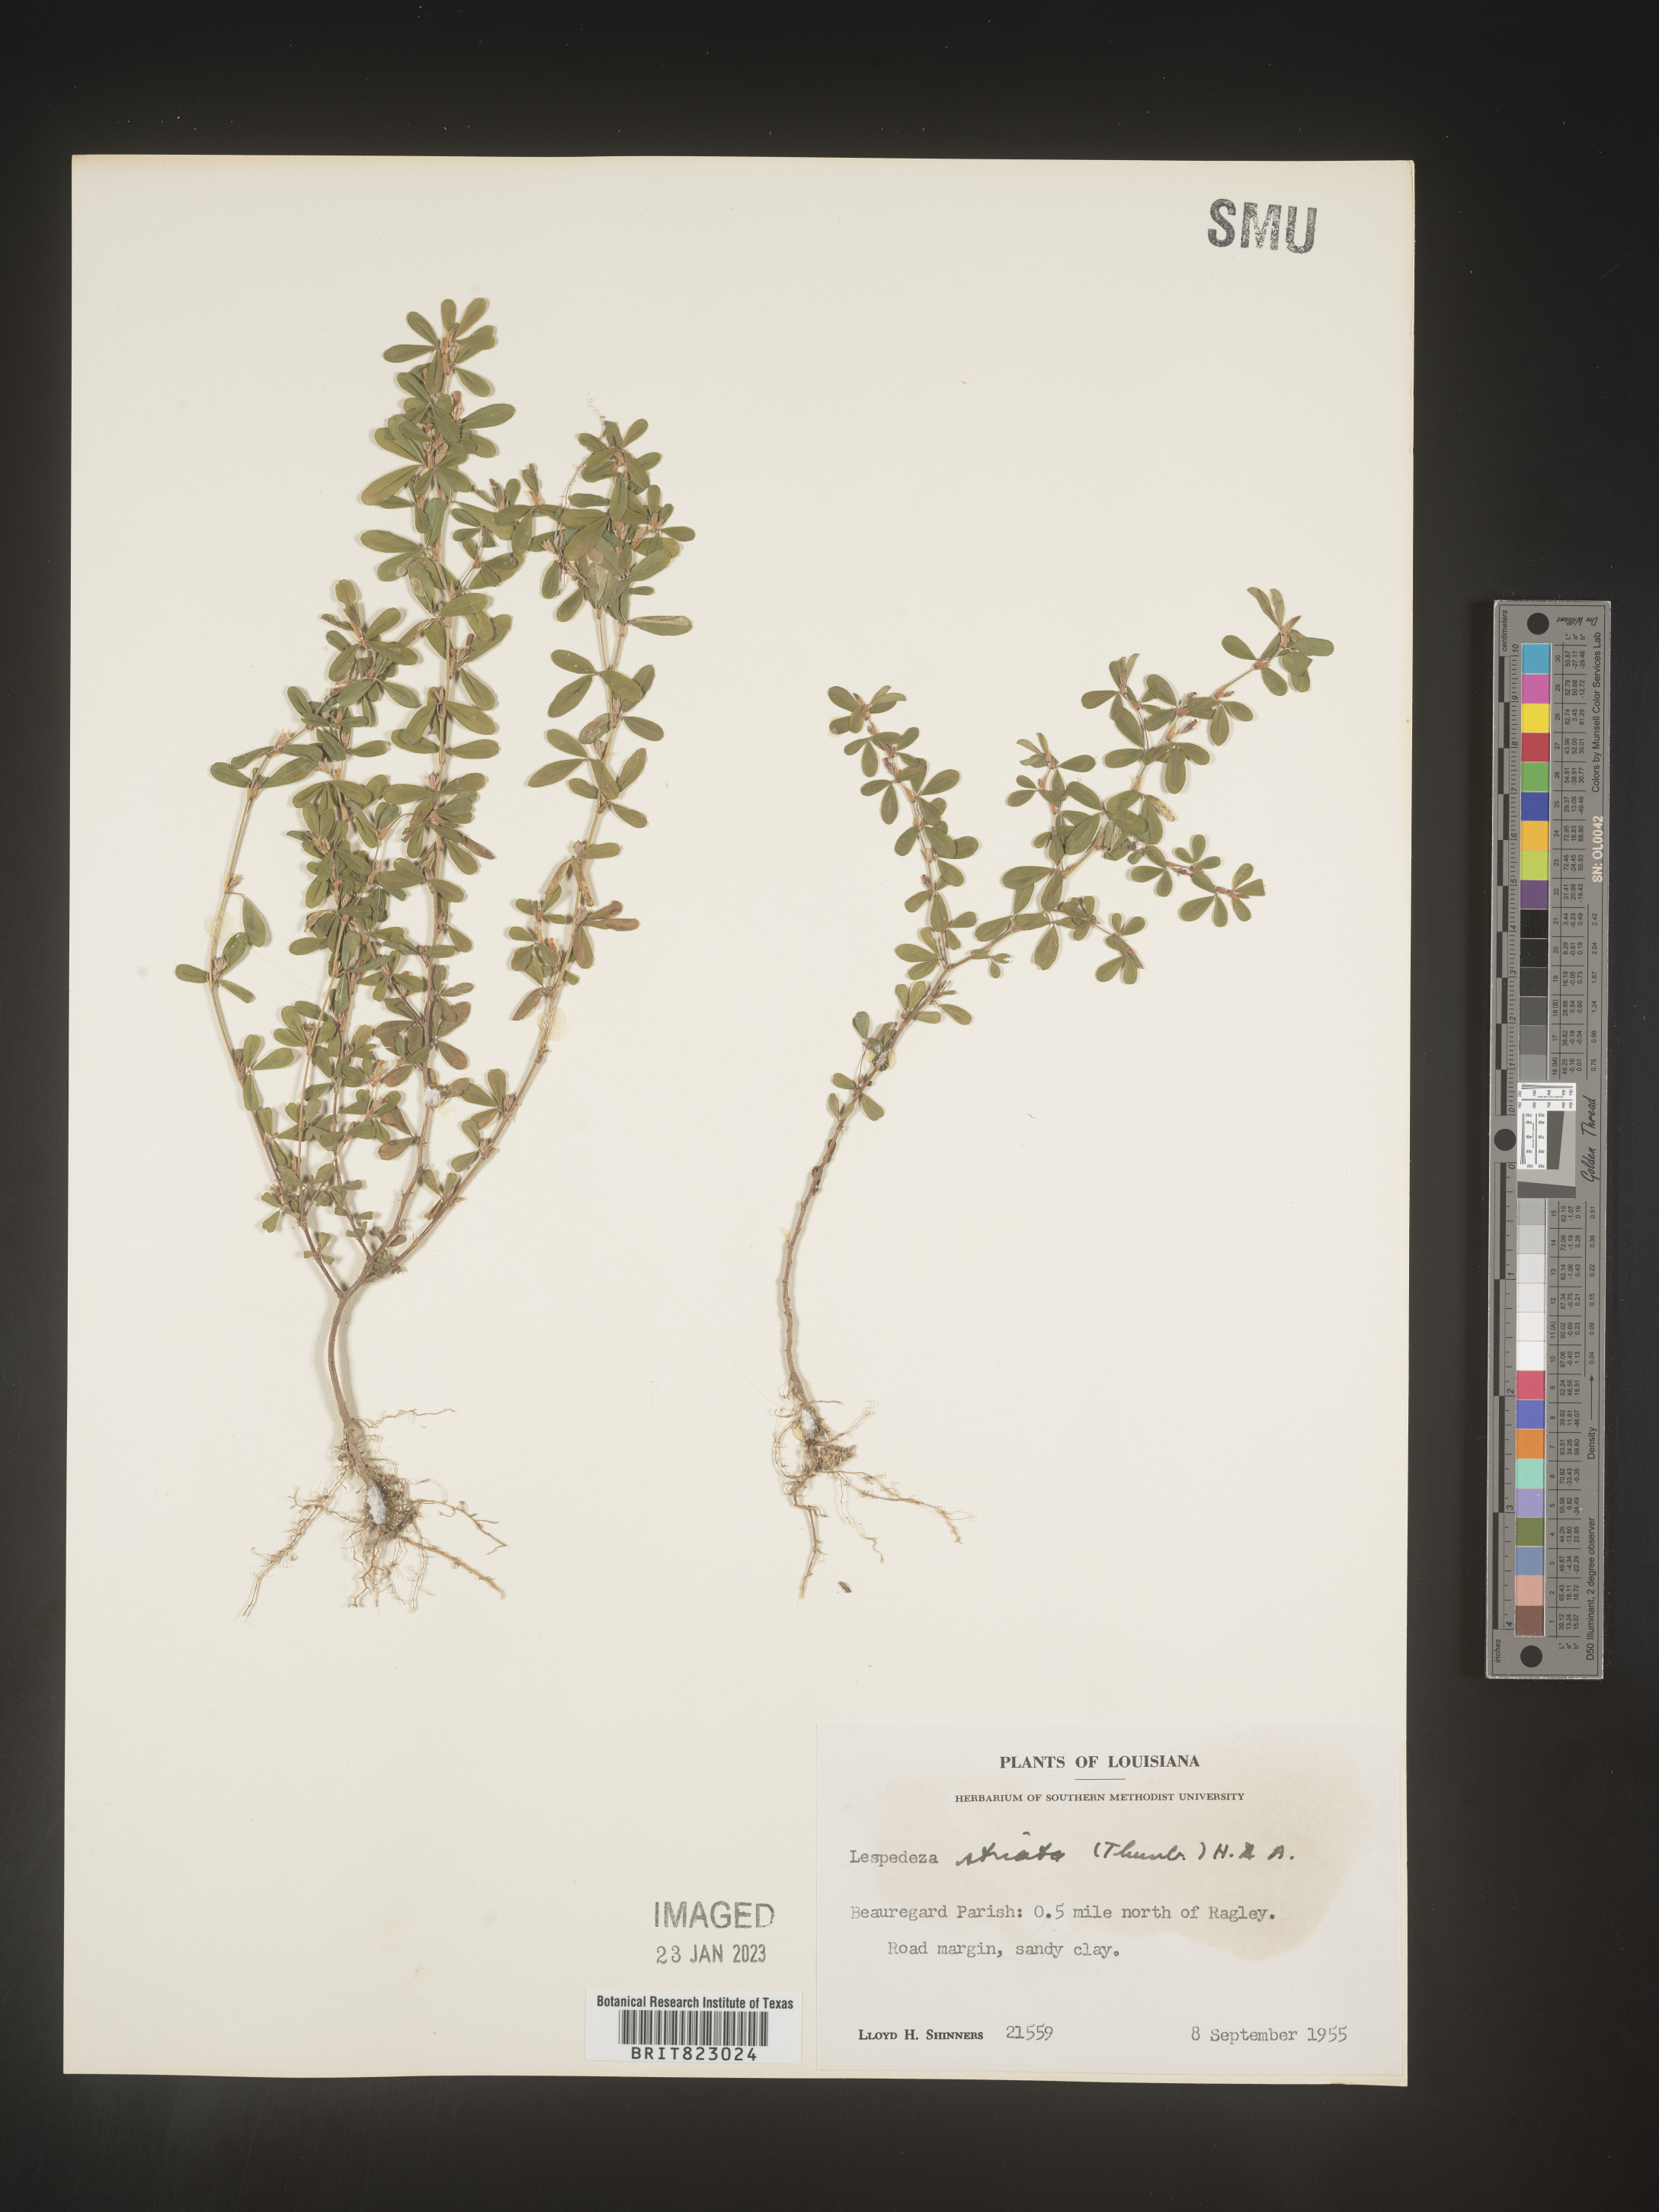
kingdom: Plantae
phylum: Tracheophyta
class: Magnoliopsida
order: Fabales
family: Fabaceae
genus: Kummerowia
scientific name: Kummerowia striata
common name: Japanese clover
